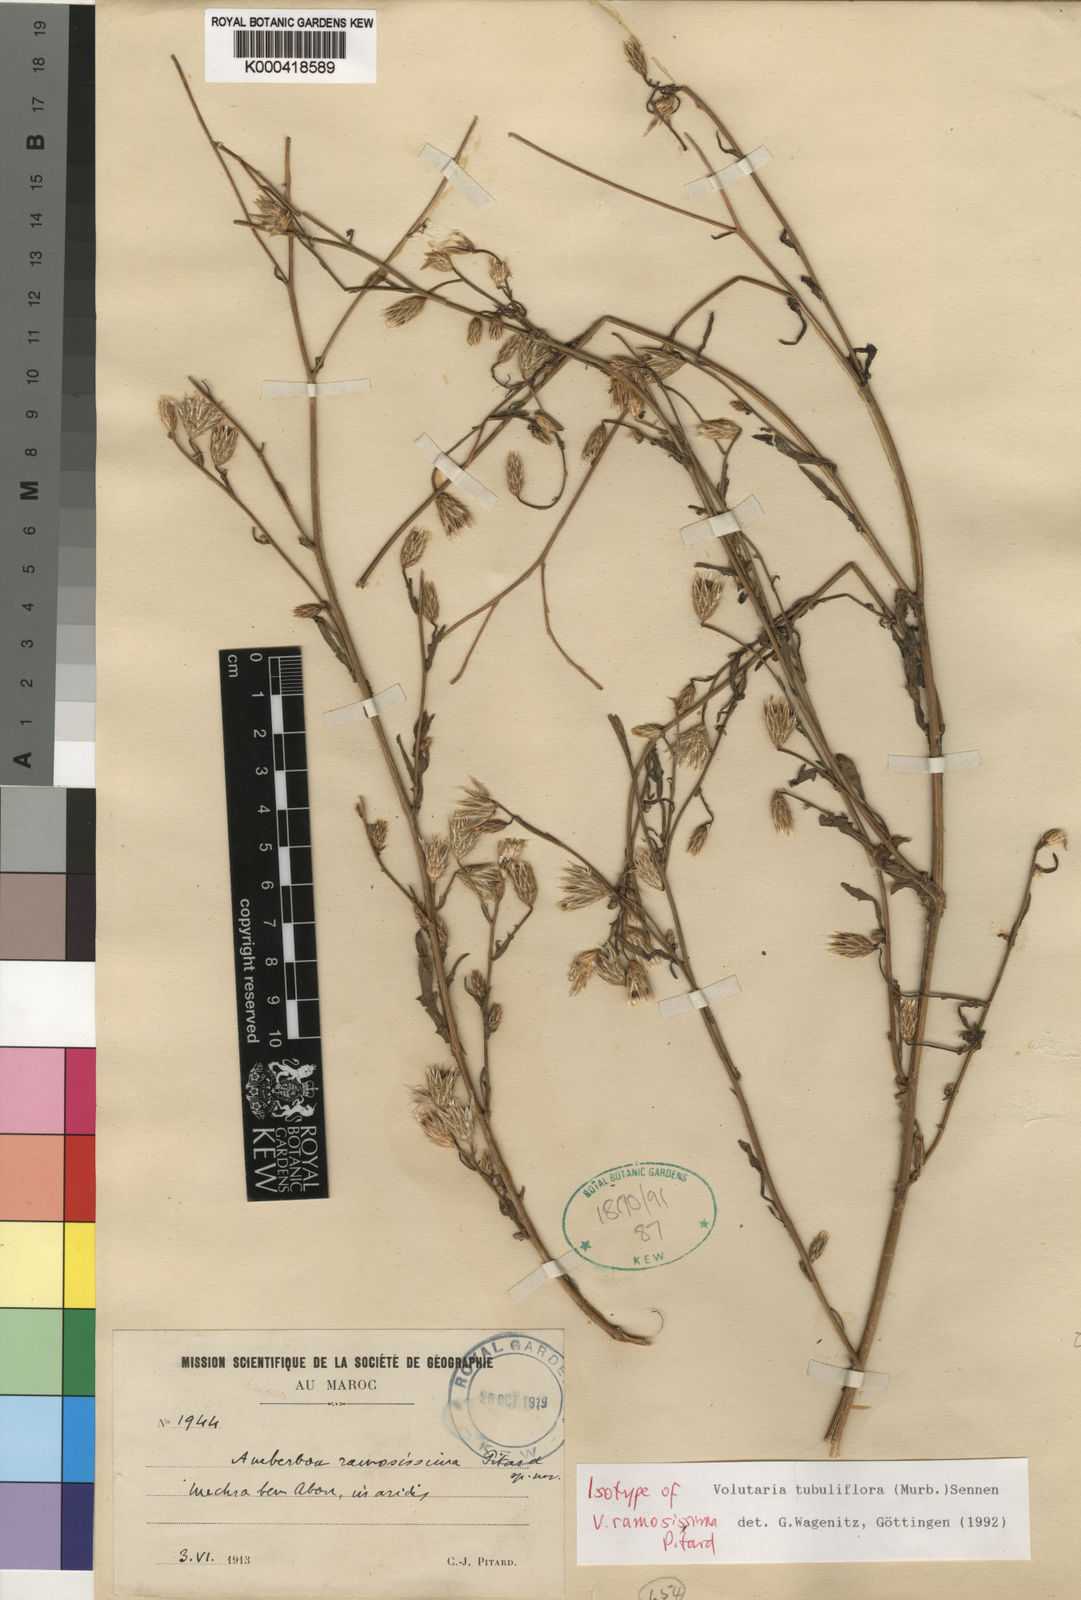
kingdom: Plantae
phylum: Tracheophyta
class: Magnoliopsida
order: Asterales
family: Asteraceae
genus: Volutaria
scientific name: Volutaria tubuliflora
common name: Desert knapweed
